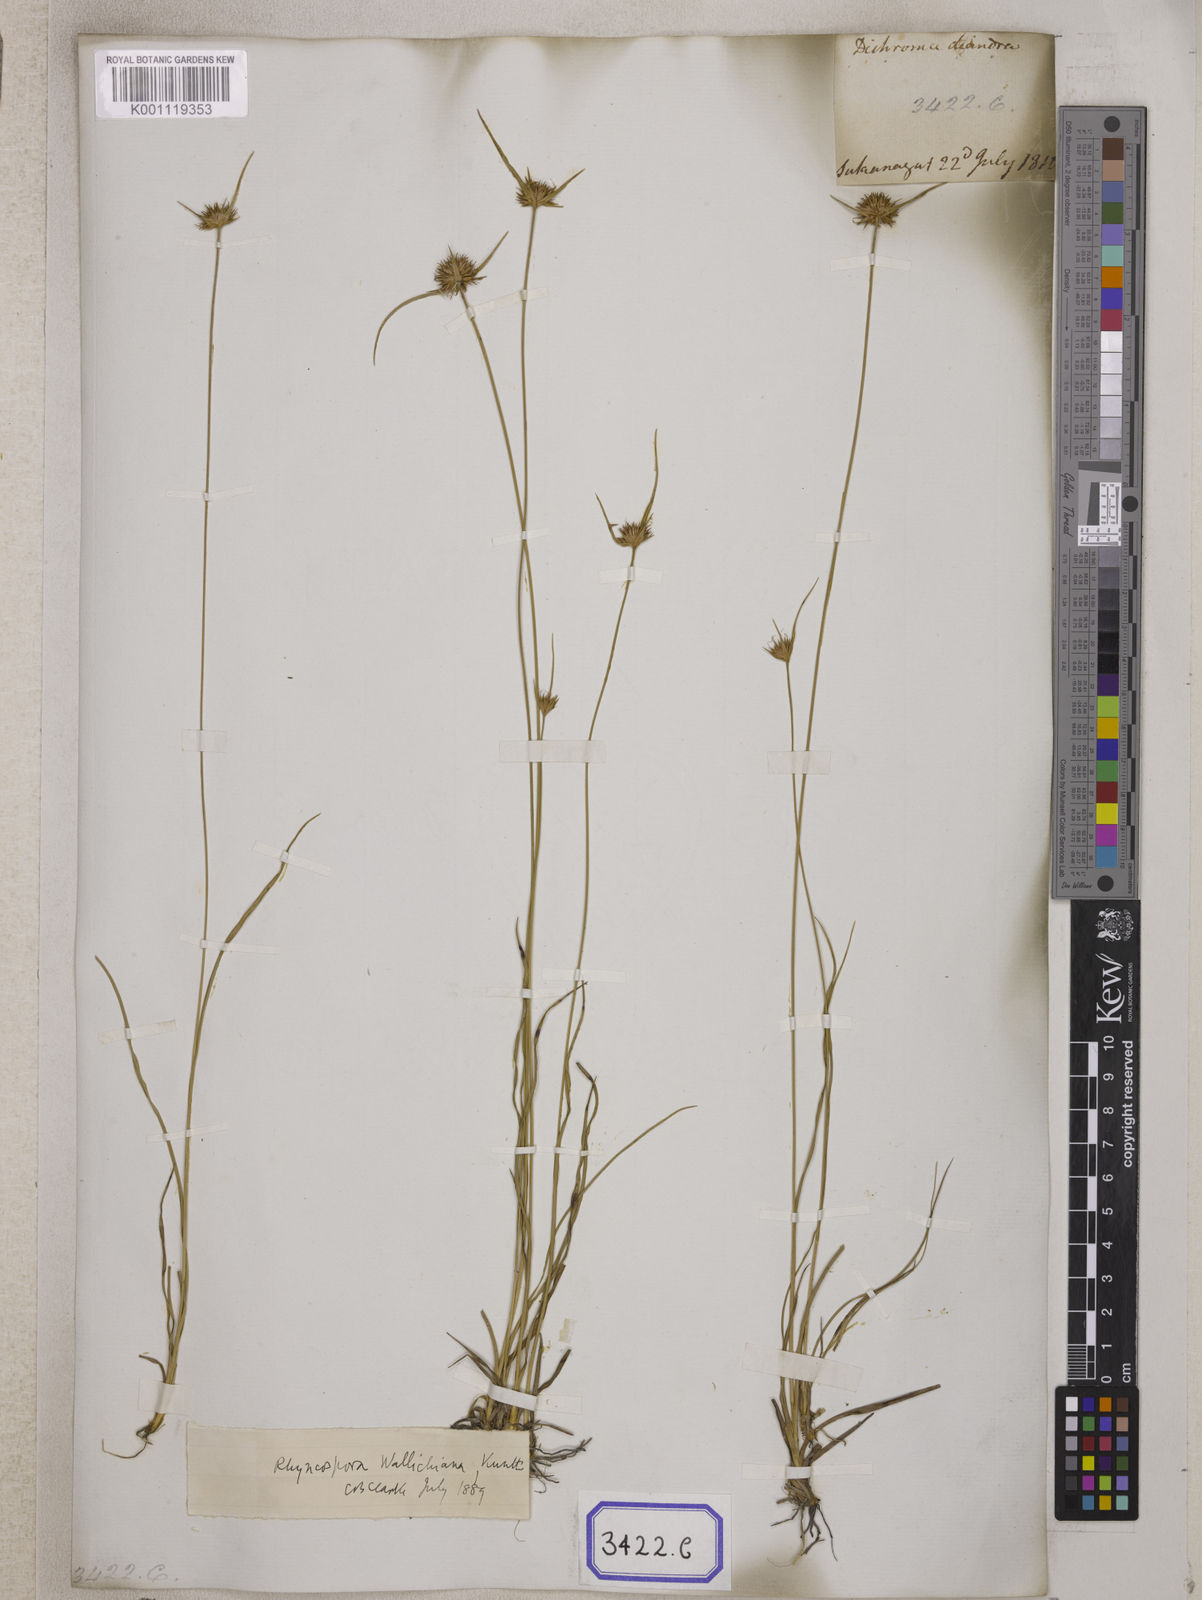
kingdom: Plantae
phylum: Tracheophyta
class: Liliopsida
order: Poales
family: Cyperaceae
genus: Rhynchospora
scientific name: Rhynchospora
